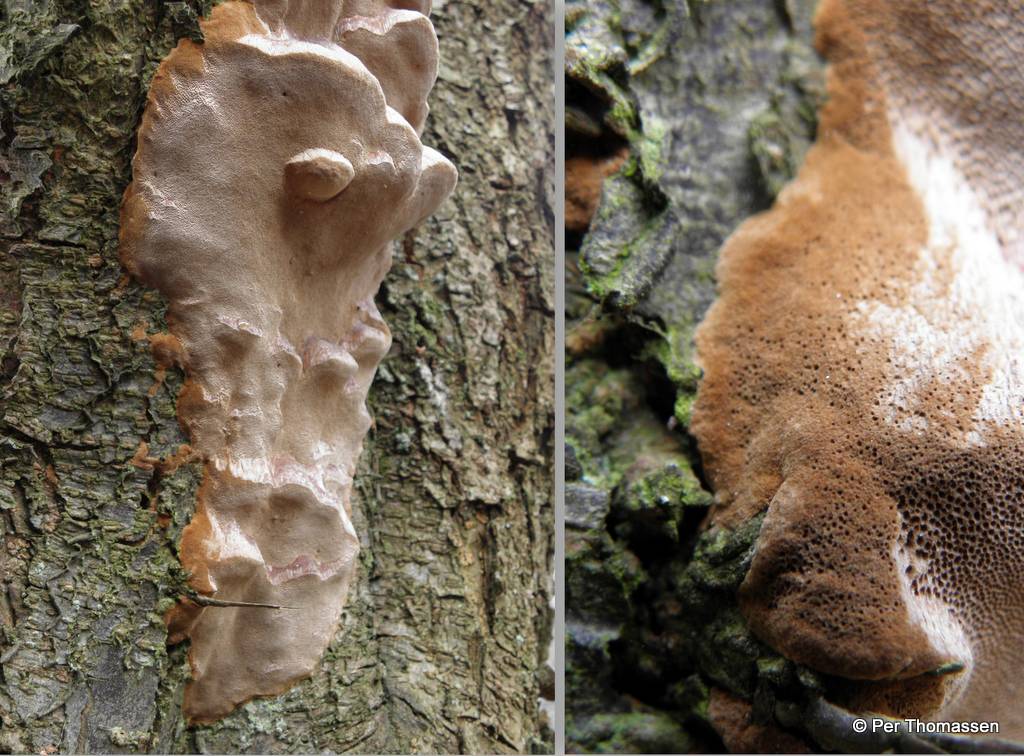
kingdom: Fungi
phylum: Basidiomycota
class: Agaricomycetes
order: Hymenochaetales
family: Hymenochaetaceae
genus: Phellinus
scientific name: Phellinus pomaceus
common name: blomme-ildporesvamp
